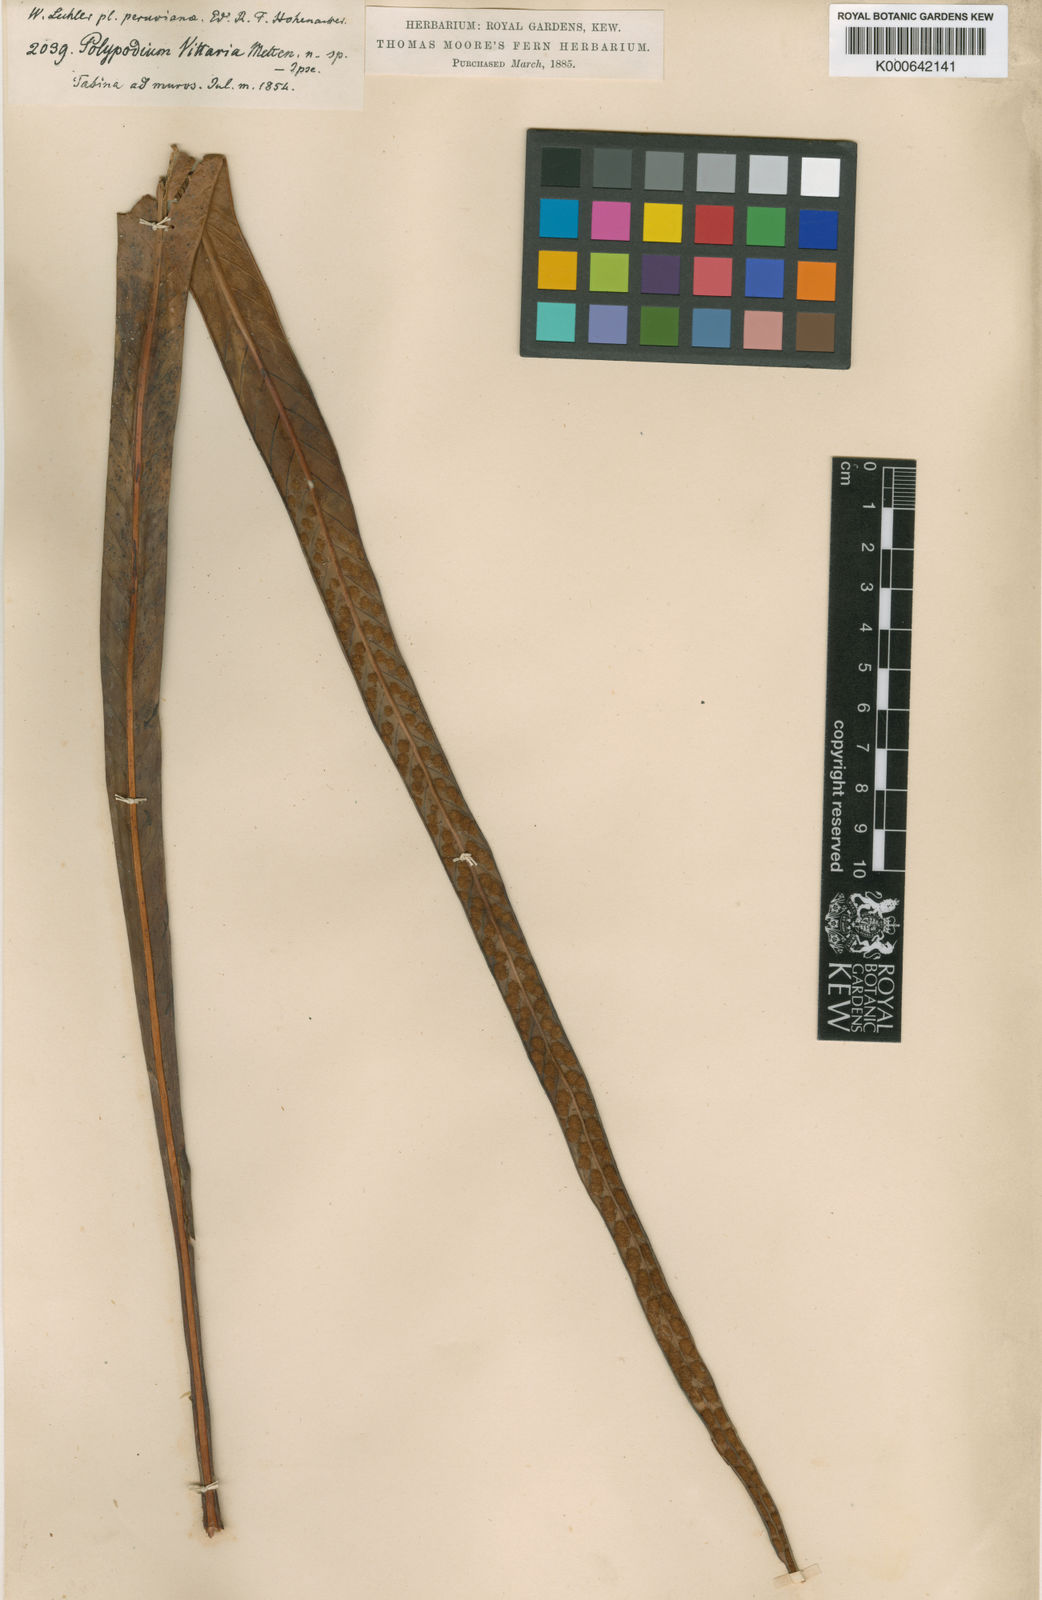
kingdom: Plantae
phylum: Tracheophyta
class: Polypodiopsida
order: Polypodiales
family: Polypodiaceae
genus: Niphidium
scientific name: Niphidium vittaria
